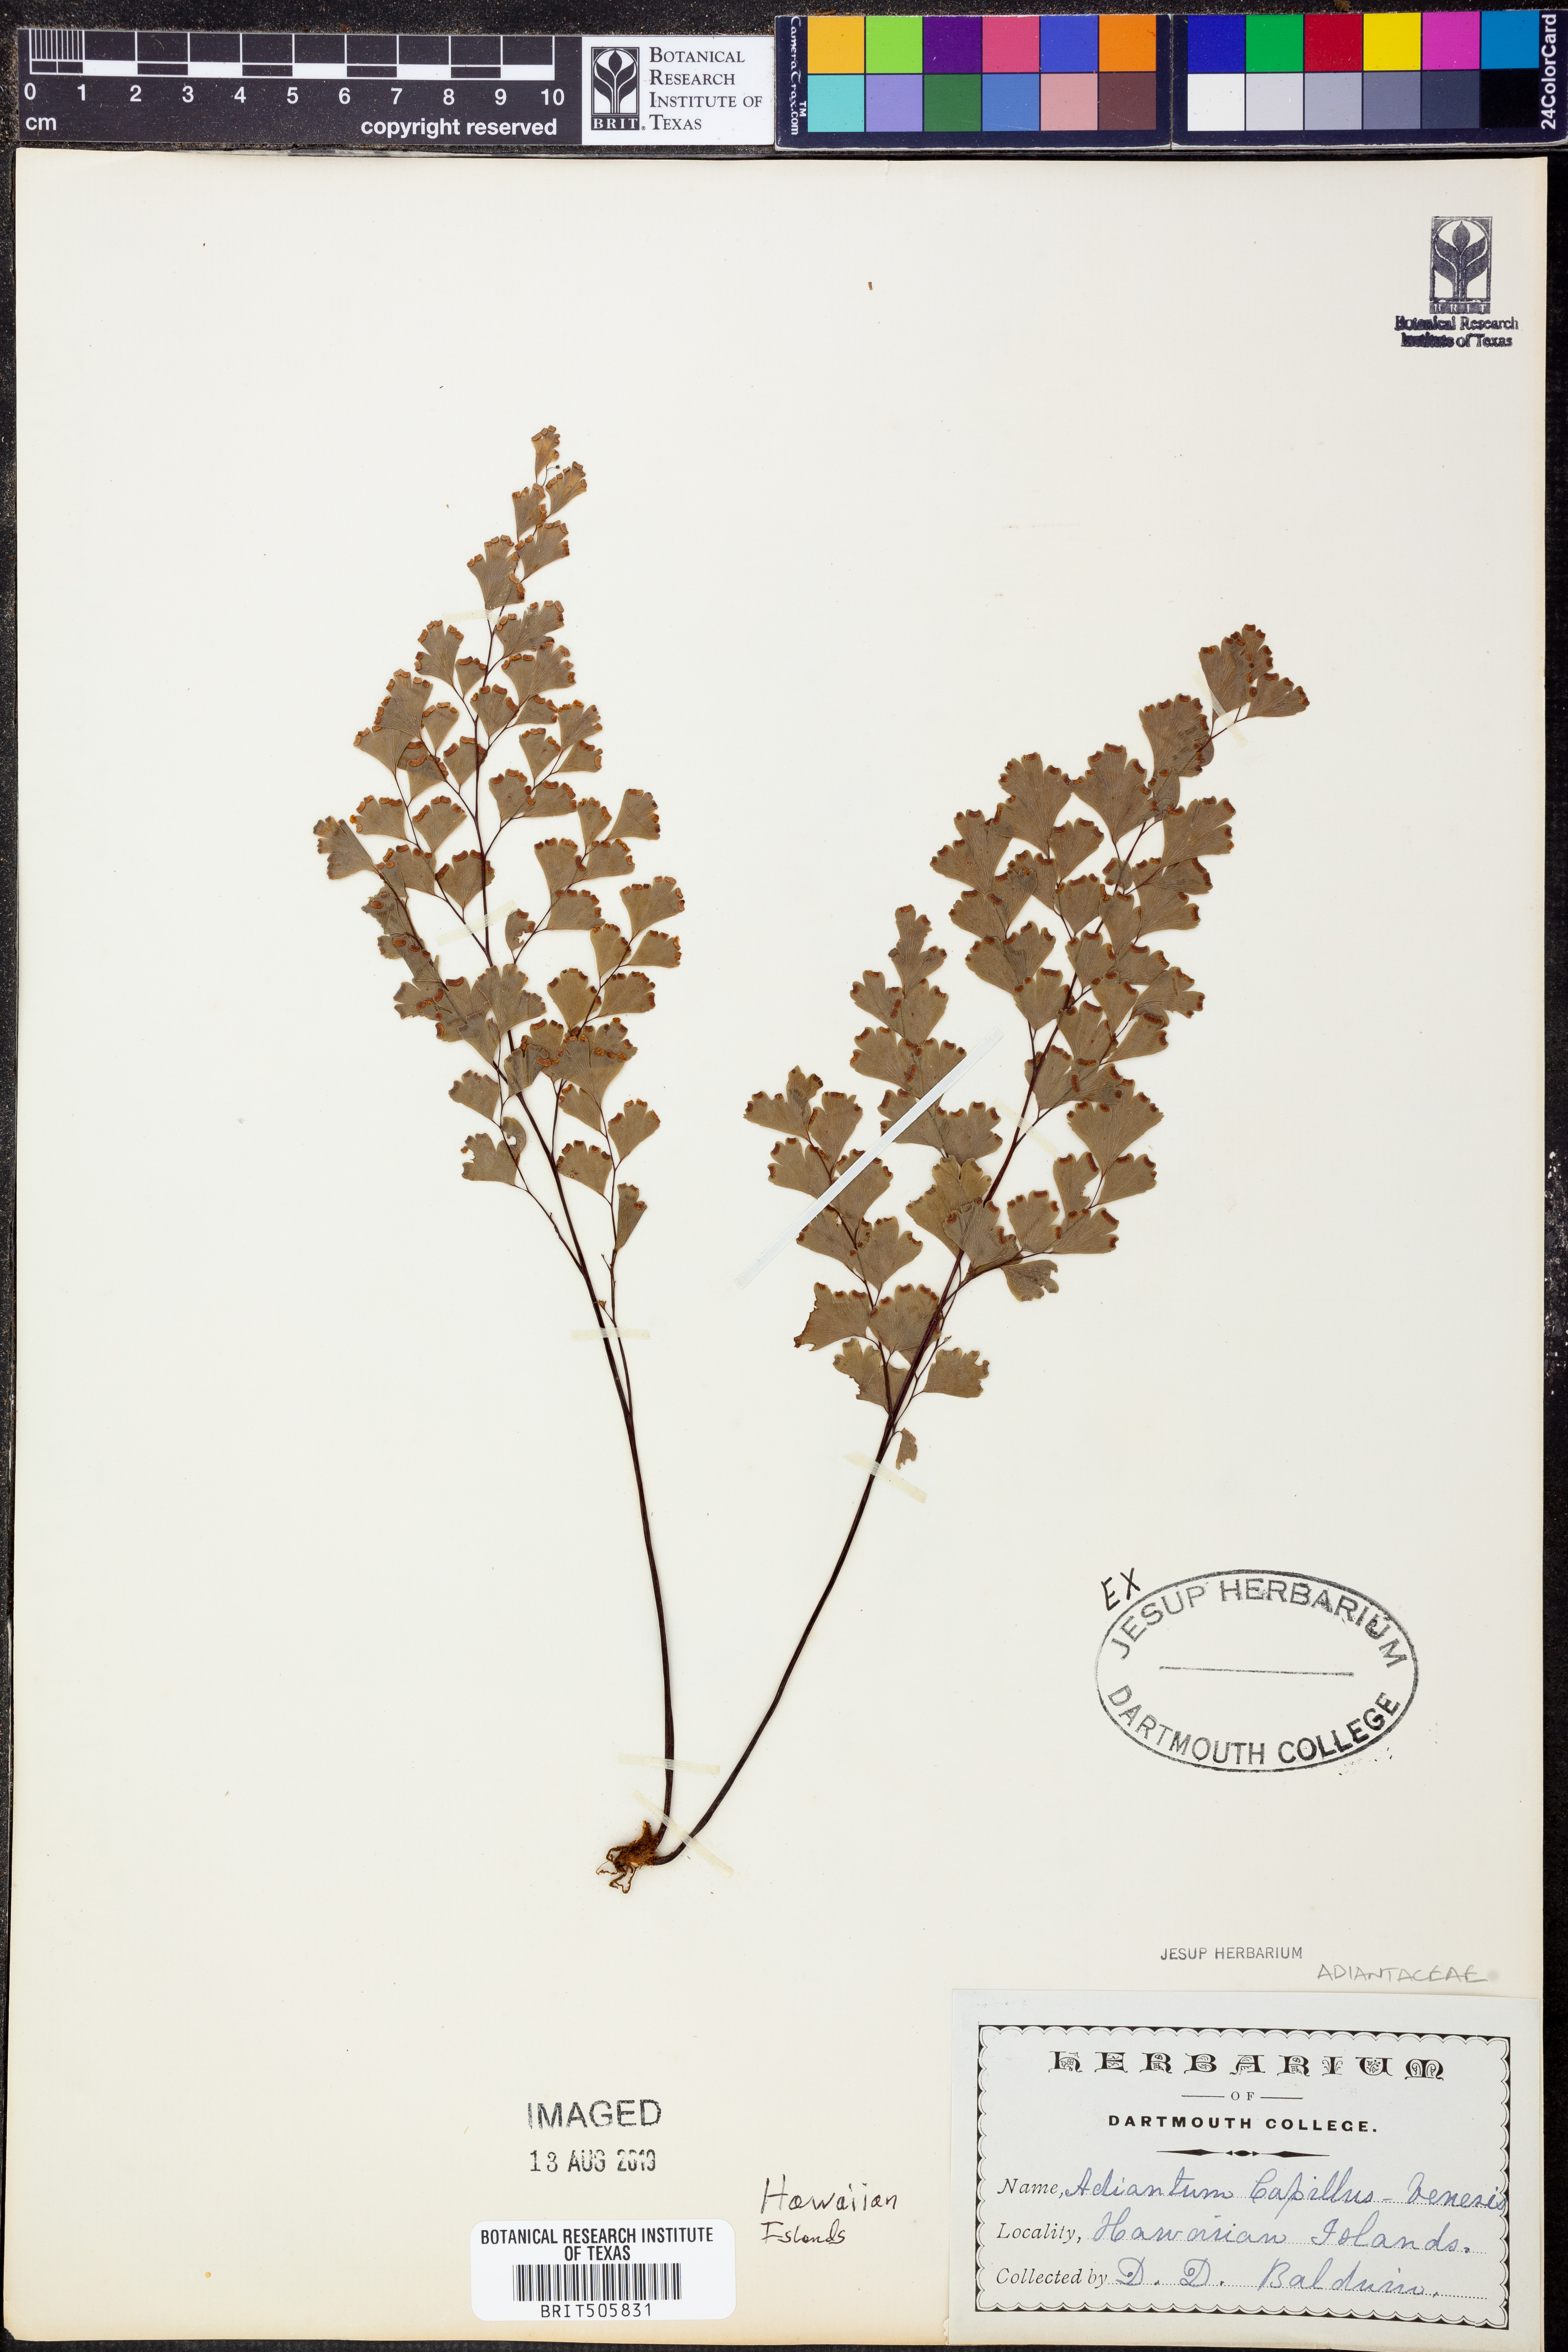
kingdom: Plantae
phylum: Tracheophyta
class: Polypodiopsida
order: Polypodiales
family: Pteridaceae
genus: Adiantum
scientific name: Adiantum capillus-veneris
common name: Maidenhair fern
